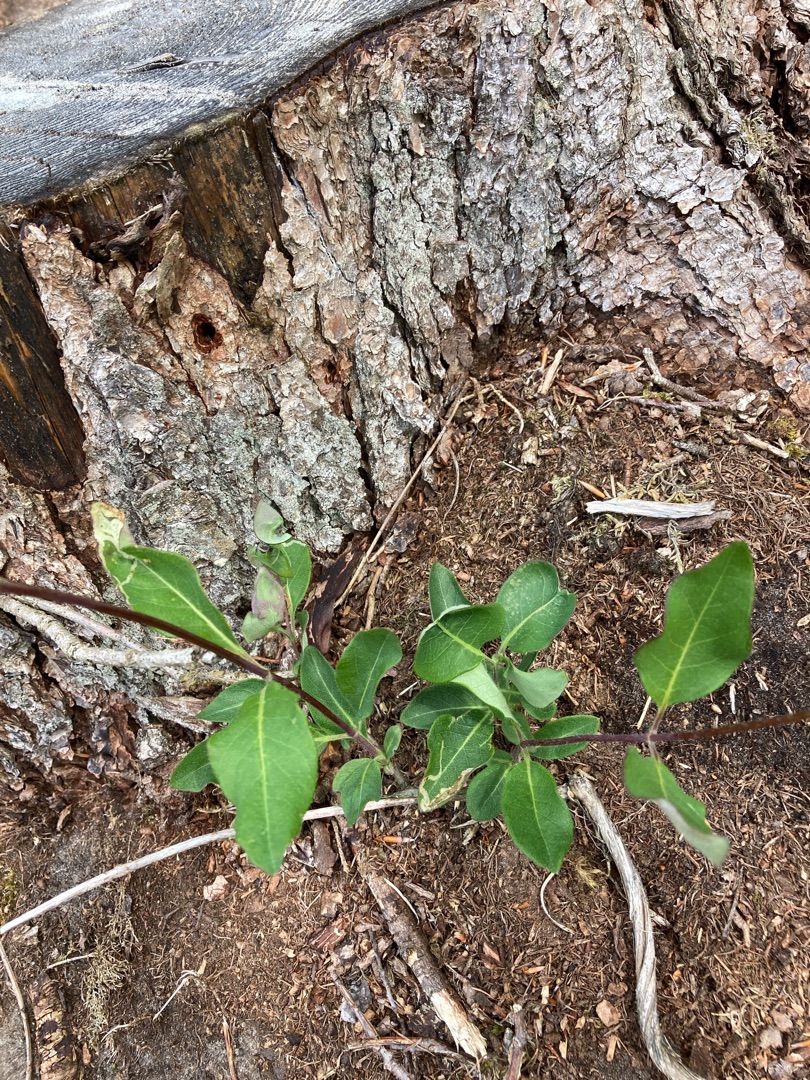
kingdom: Plantae
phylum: Tracheophyta
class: Magnoliopsida
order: Dipsacales
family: Caprifoliaceae
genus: Lonicera
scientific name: Lonicera periclymenum
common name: Almindelig gedeblad
